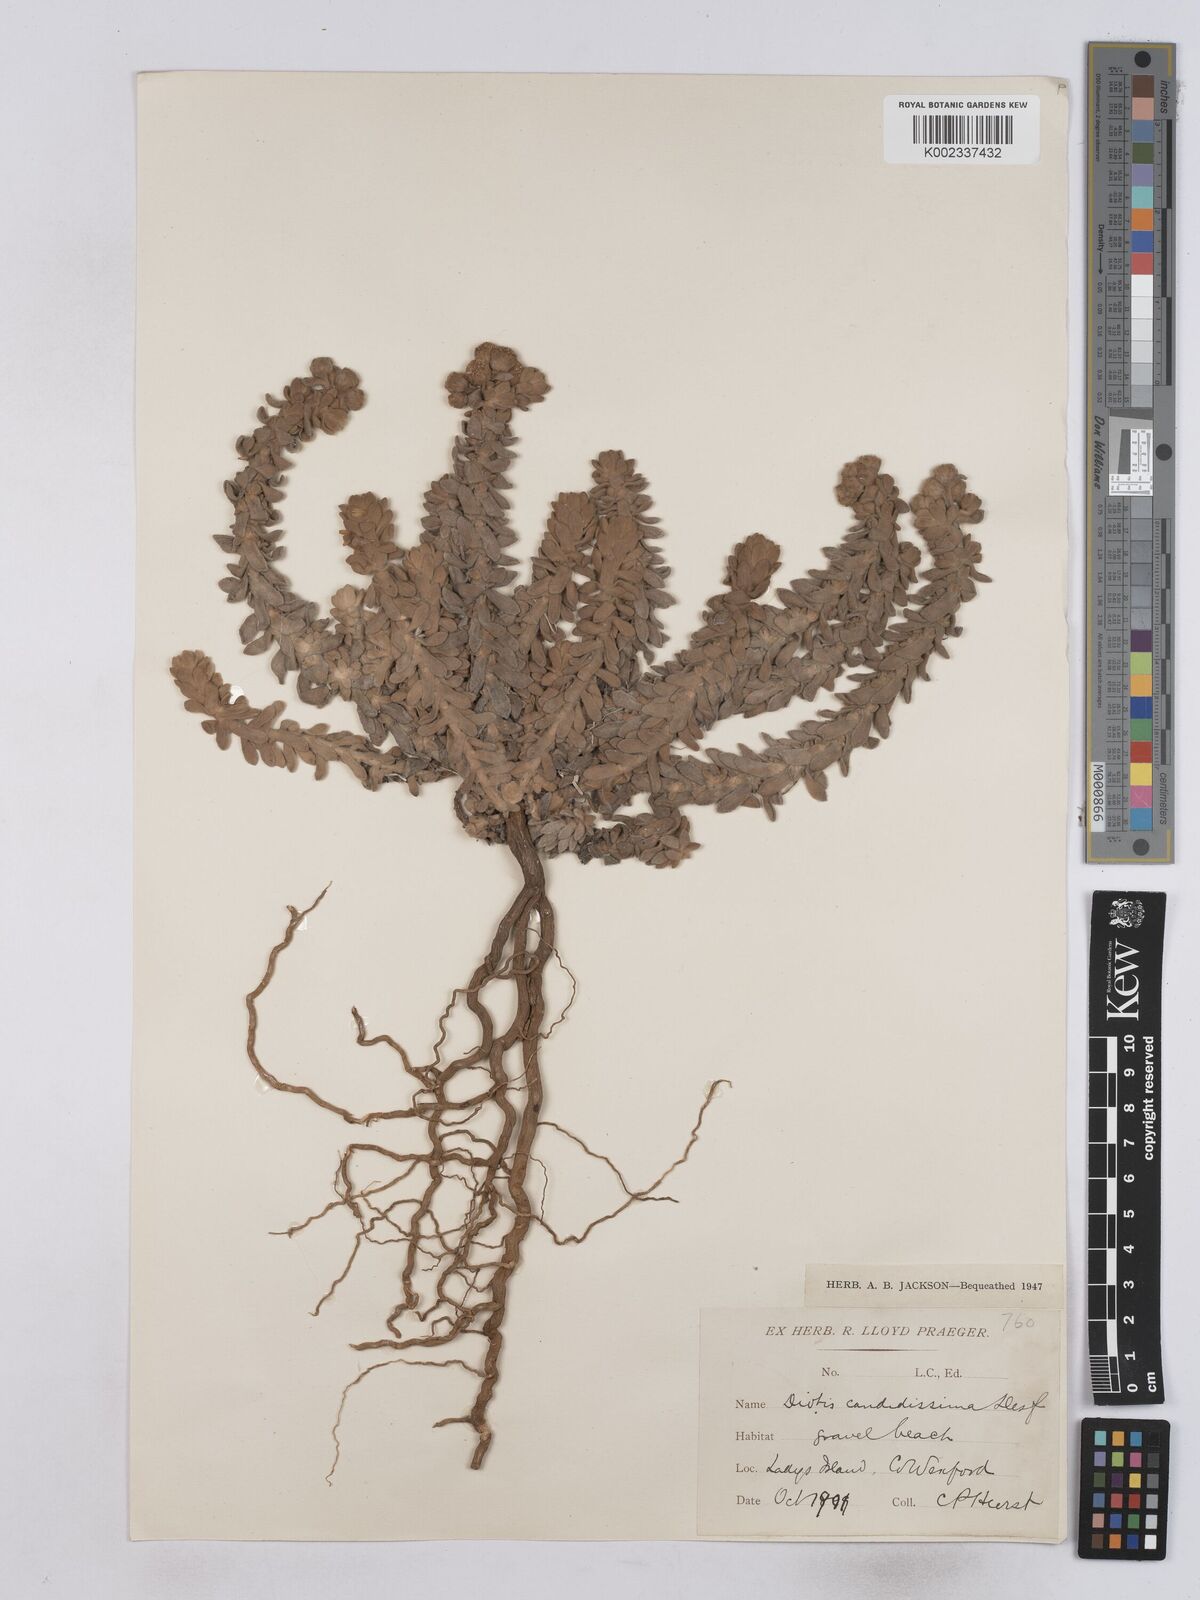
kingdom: Plantae
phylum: Tracheophyta
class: Magnoliopsida
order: Asterales
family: Asteraceae
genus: Achillea
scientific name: Achillea maritima
